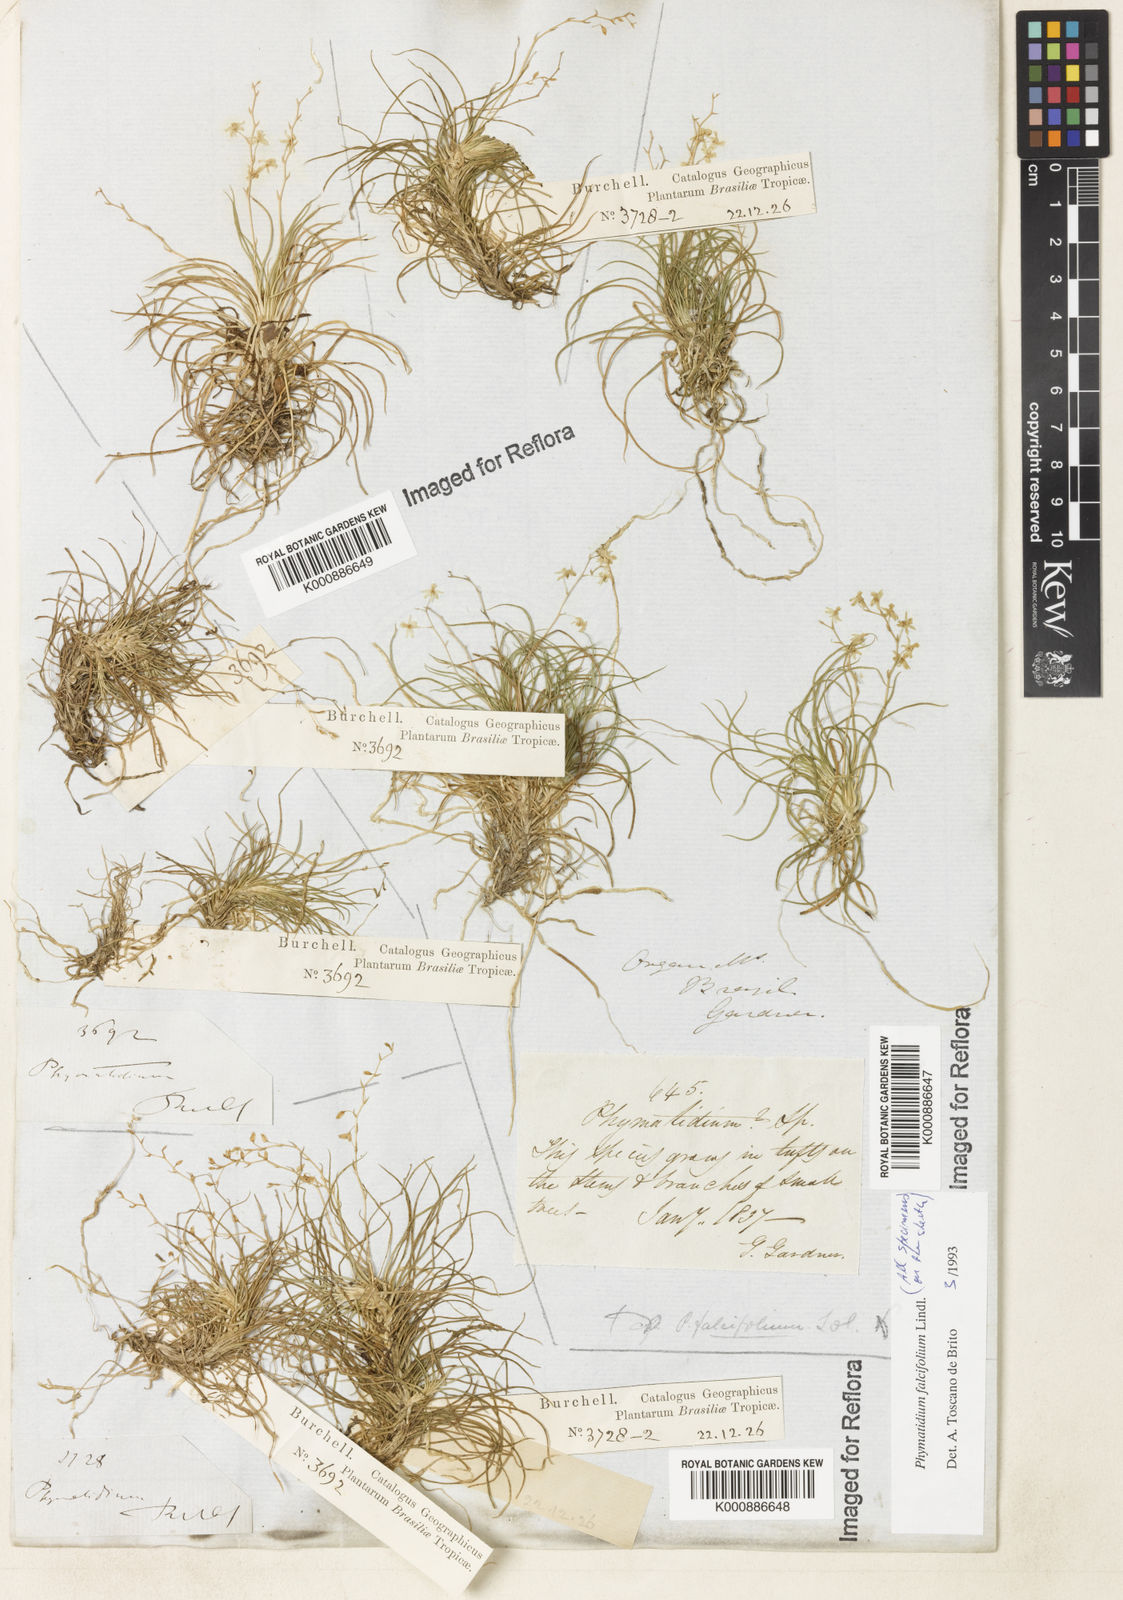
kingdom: Plantae
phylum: Tracheophyta
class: Liliopsida
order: Asparagales
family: Orchidaceae
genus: Phymatidium
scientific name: Phymatidium falcifolium
